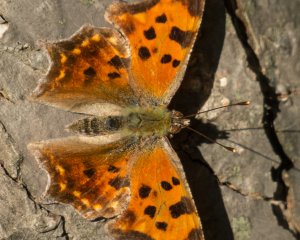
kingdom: Animalia
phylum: Arthropoda
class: Insecta
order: Lepidoptera
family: Nymphalidae
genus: Polygonia
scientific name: Polygonia comma
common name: Eastern Comma
